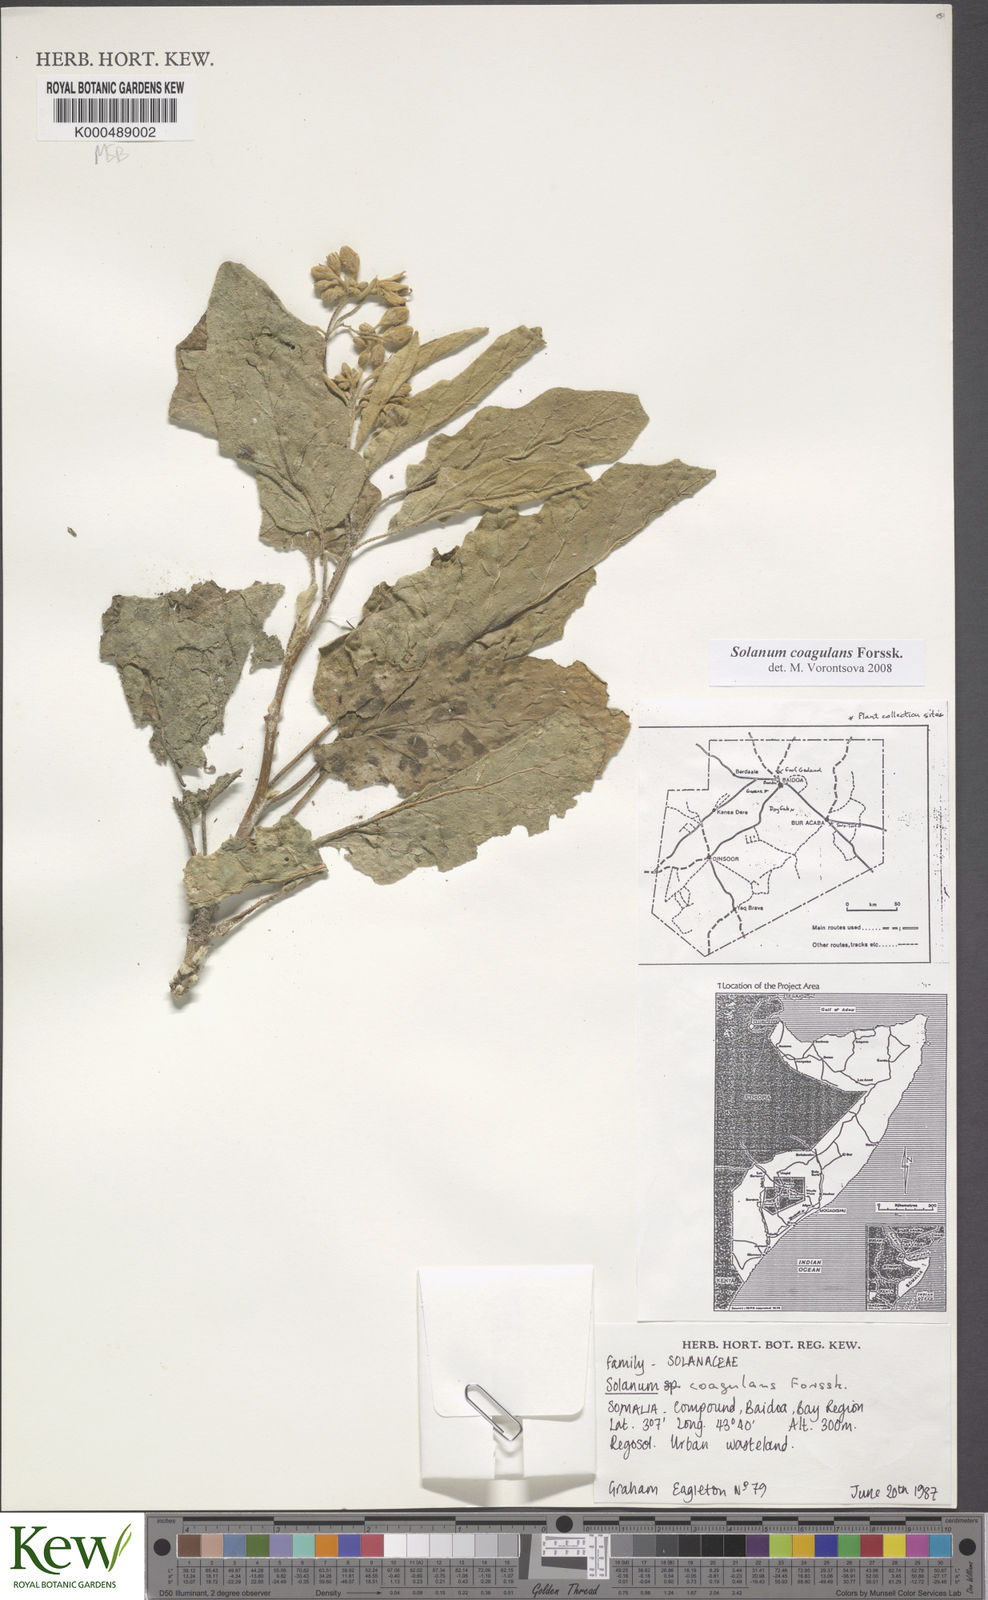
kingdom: Plantae
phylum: Tracheophyta
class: Magnoliopsida
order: Solanales
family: Solanaceae
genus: Solanum
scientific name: Solanum coagulans
